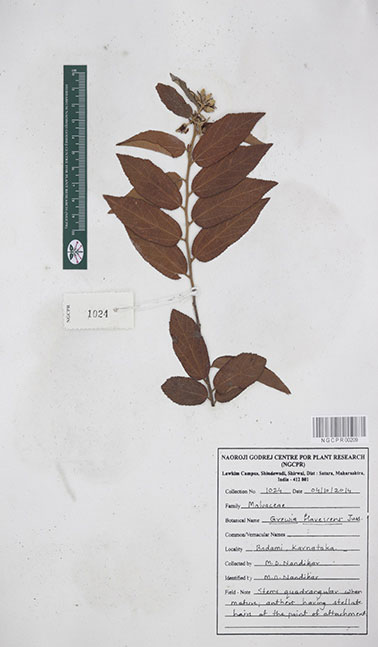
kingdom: Plantae
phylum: Tracheophyta
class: Magnoliopsida
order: Malvales
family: Malvaceae
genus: Grewia
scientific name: Grewia flavescens
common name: Sandpaper raisin
